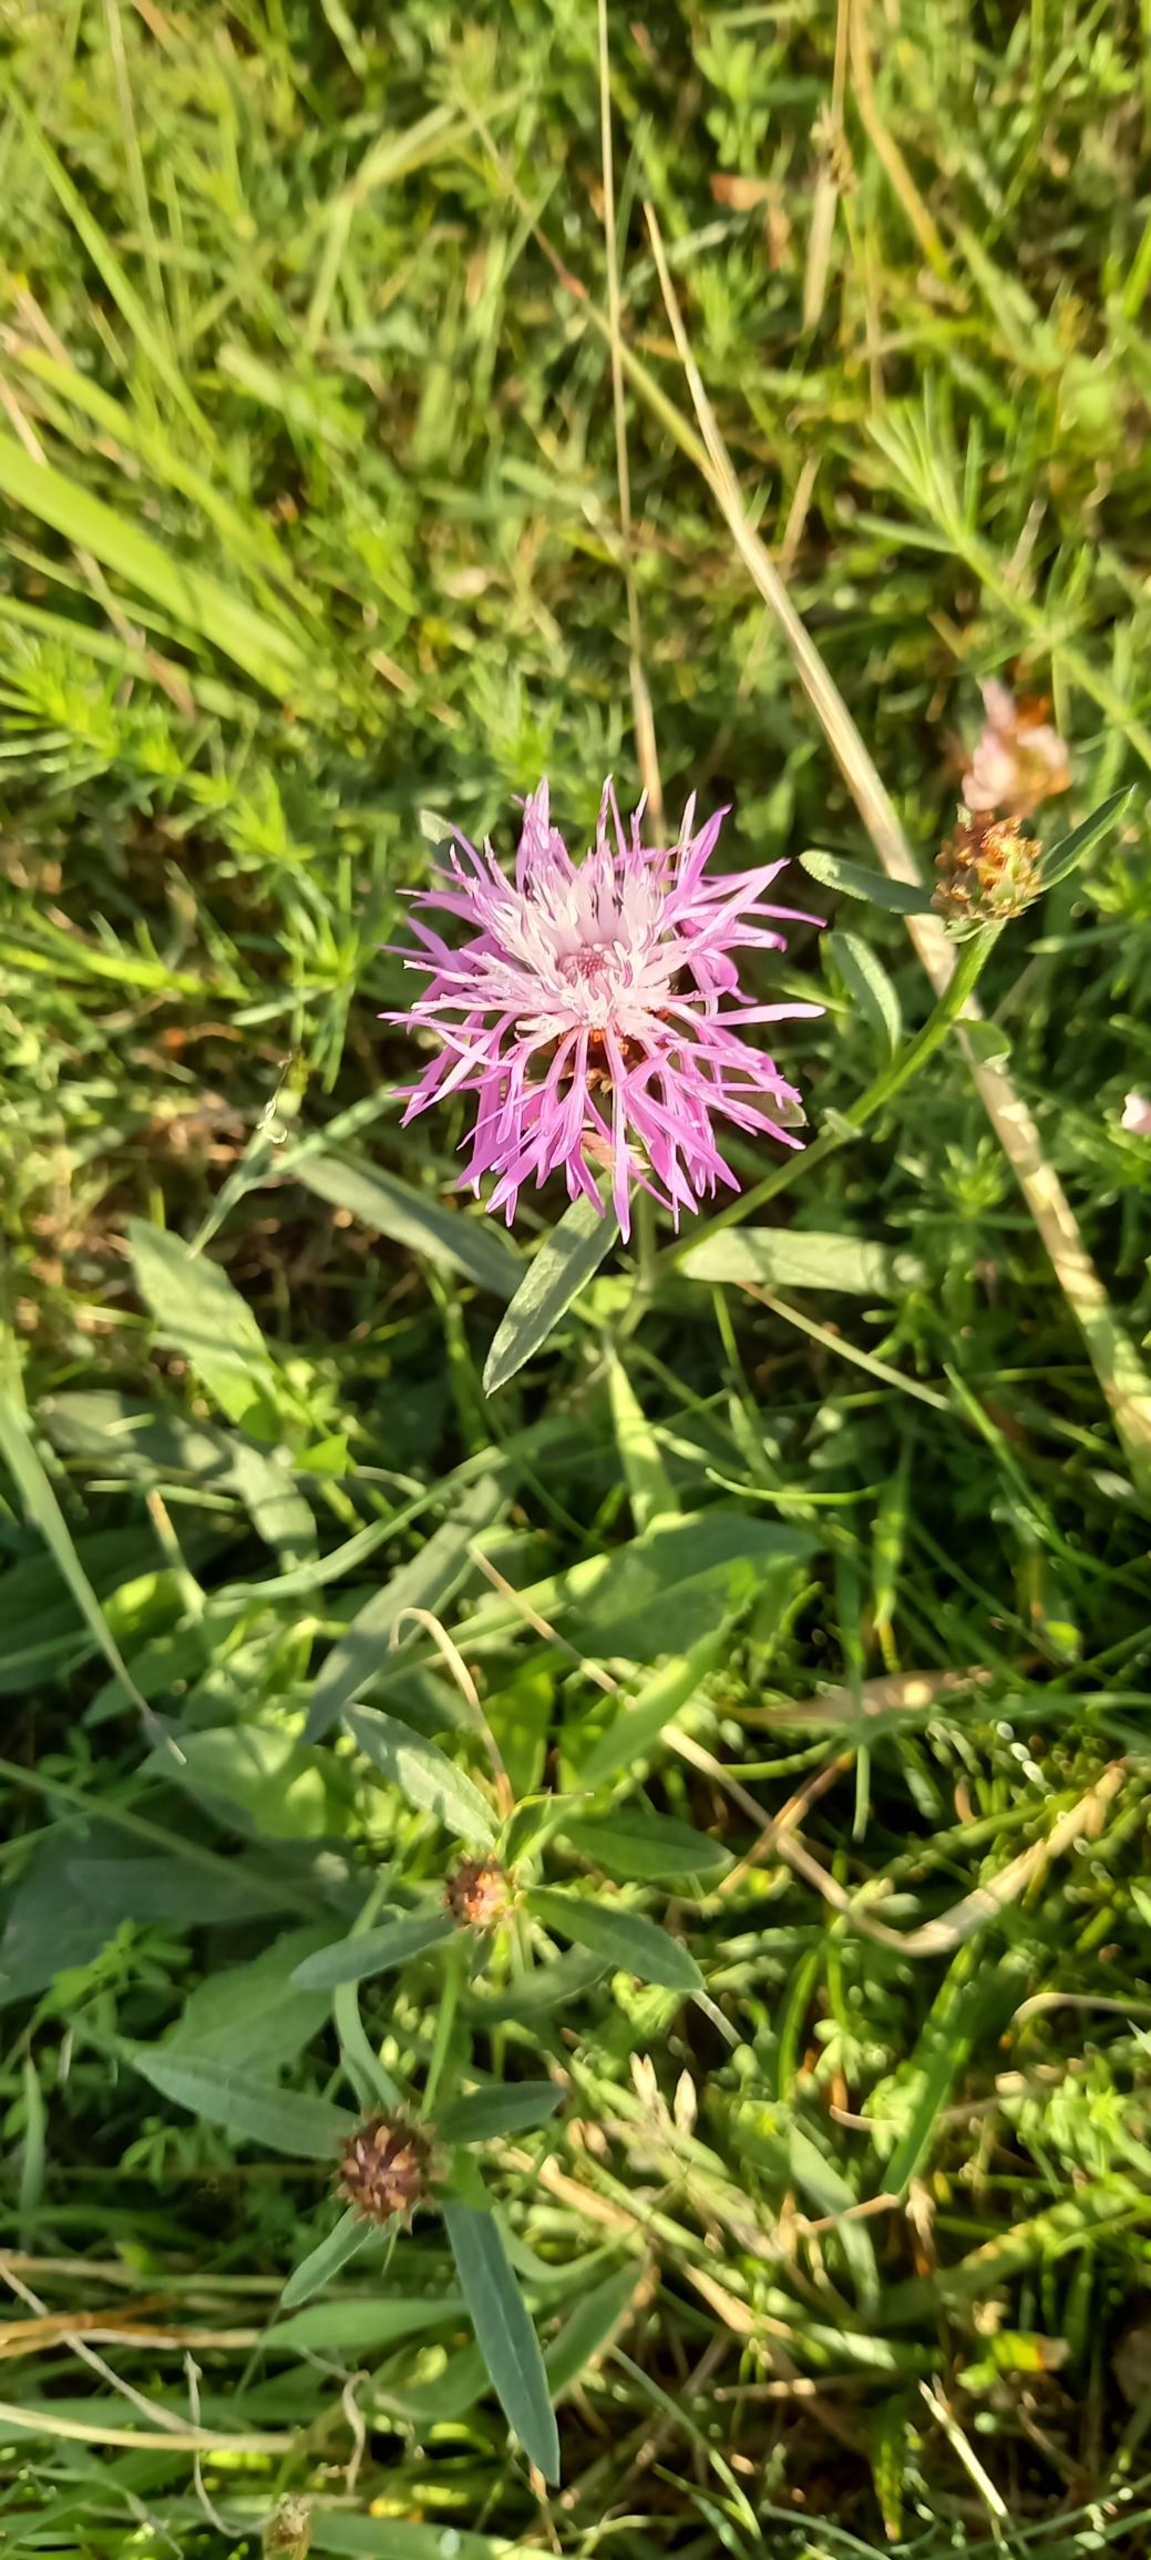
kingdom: Plantae
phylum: Tracheophyta
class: Magnoliopsida
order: Asterales
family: Asteraceae
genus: Centaurea
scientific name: Centaurea jacea
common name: Almindelig knopurt
